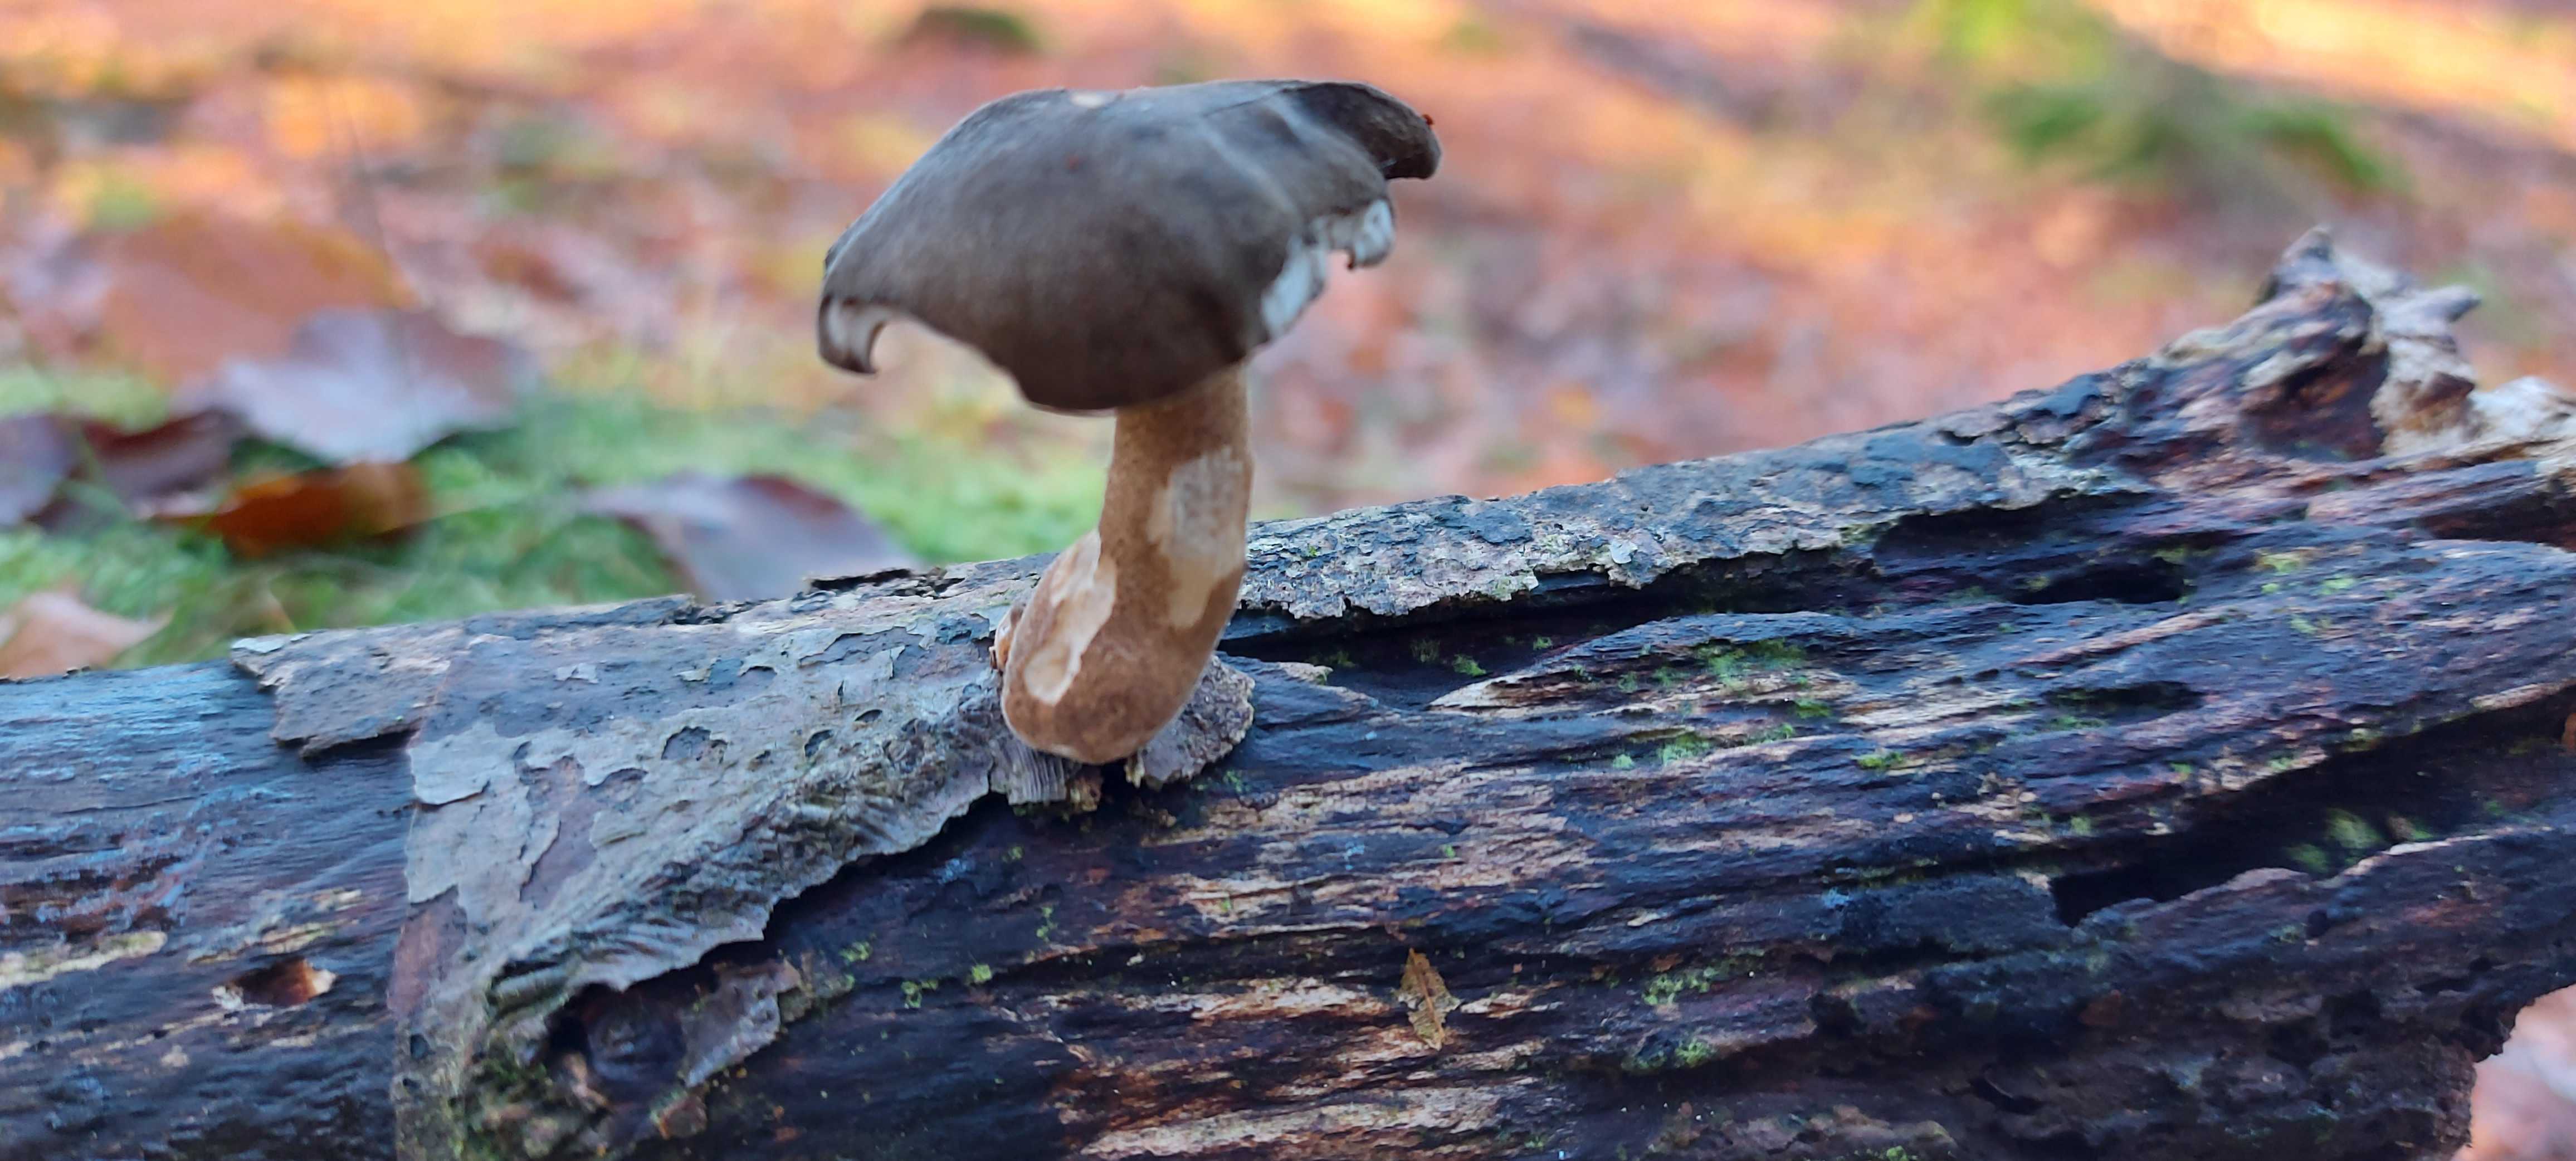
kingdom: Fungi
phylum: Basidiomycota
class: Agaricomycetes
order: Polyporales
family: Polyporaceae
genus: Lentinus
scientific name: Lentinus brumalis
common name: vinter-stilkporesvamp
